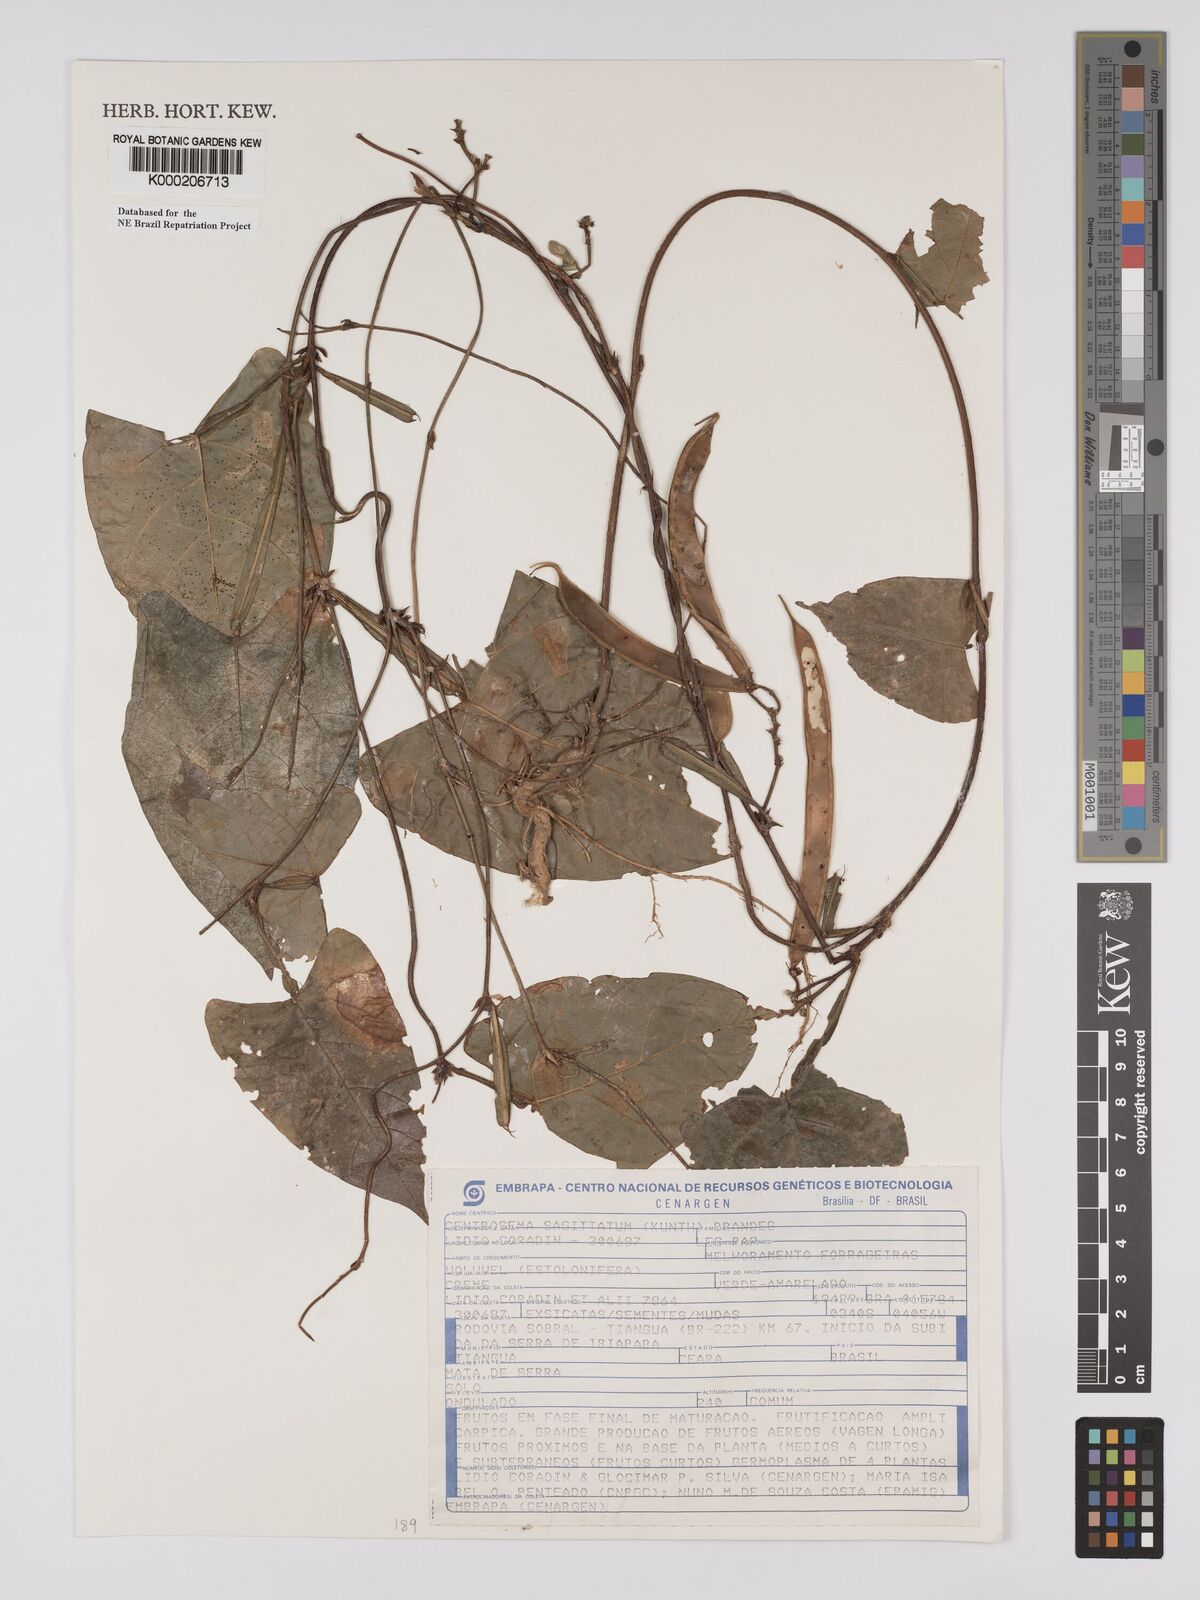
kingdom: Plantae
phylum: Tracheophyta
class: Magnoliopsida
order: Fabales
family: Fabaceae
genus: Centrosema
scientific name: Centrosema sagittatum
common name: Arrowleaf butterfly pea
